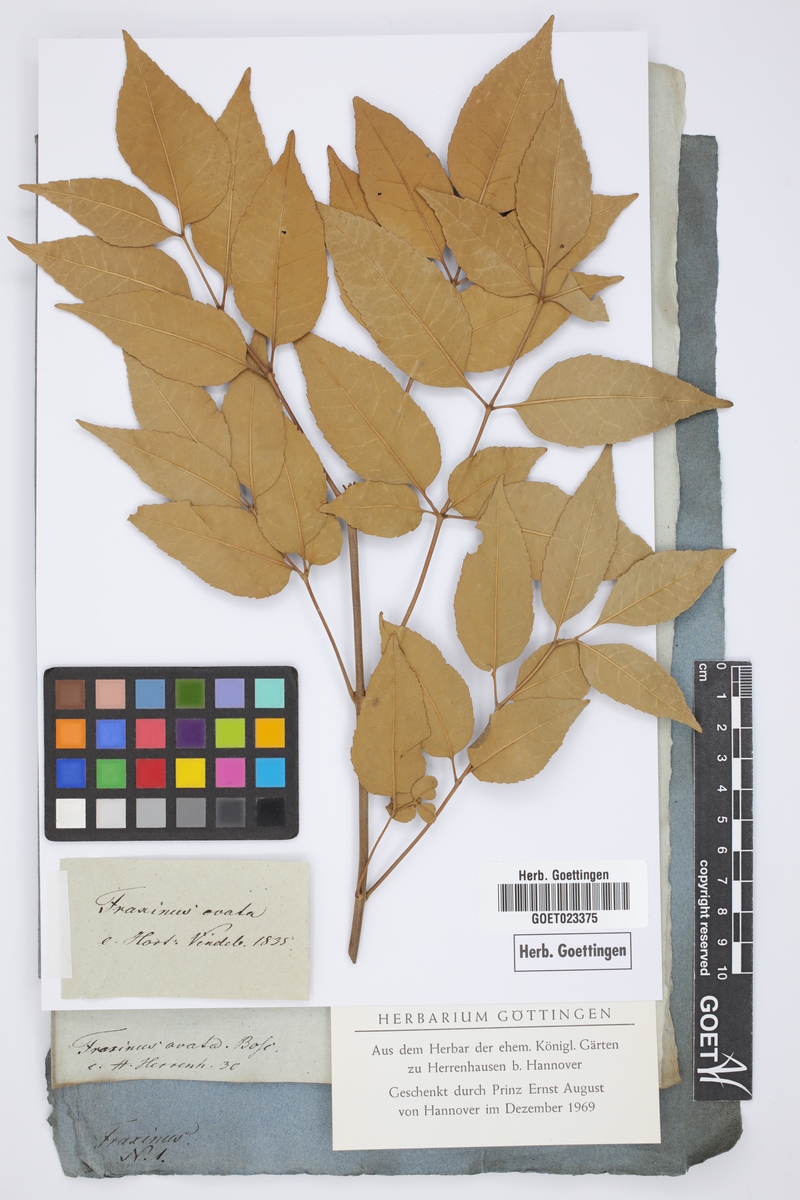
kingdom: Plantae
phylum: Tracheophyta
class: Magnoliopsida
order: Lamiales
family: Oleaceae
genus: Fraxinus
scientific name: Fraxinus pennsylvanica
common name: Green ash
